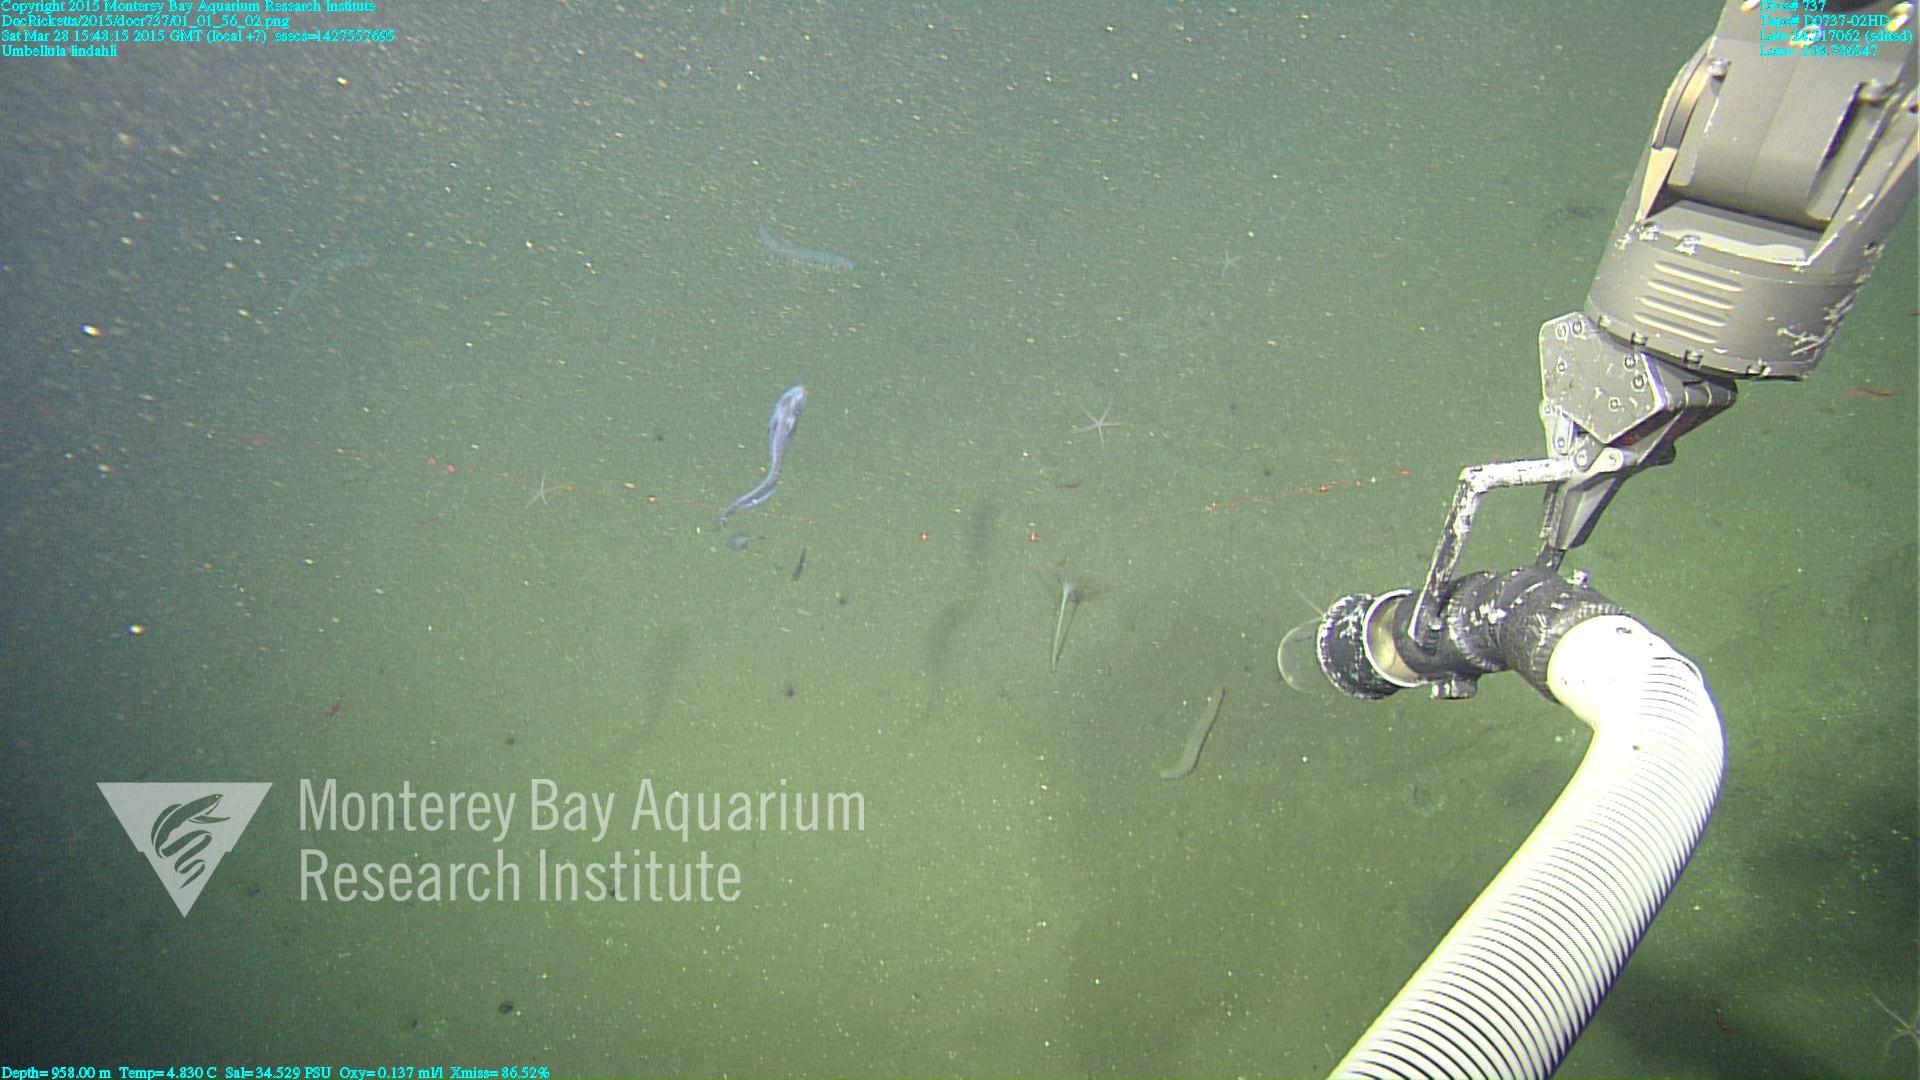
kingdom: Animalia
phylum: Cnidaria
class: Anthozoa
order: Scleralcyonacea
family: Umbellulidae
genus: Umbellula
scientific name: Umbellula lindahli
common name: Lindahl's droopy sea pen
